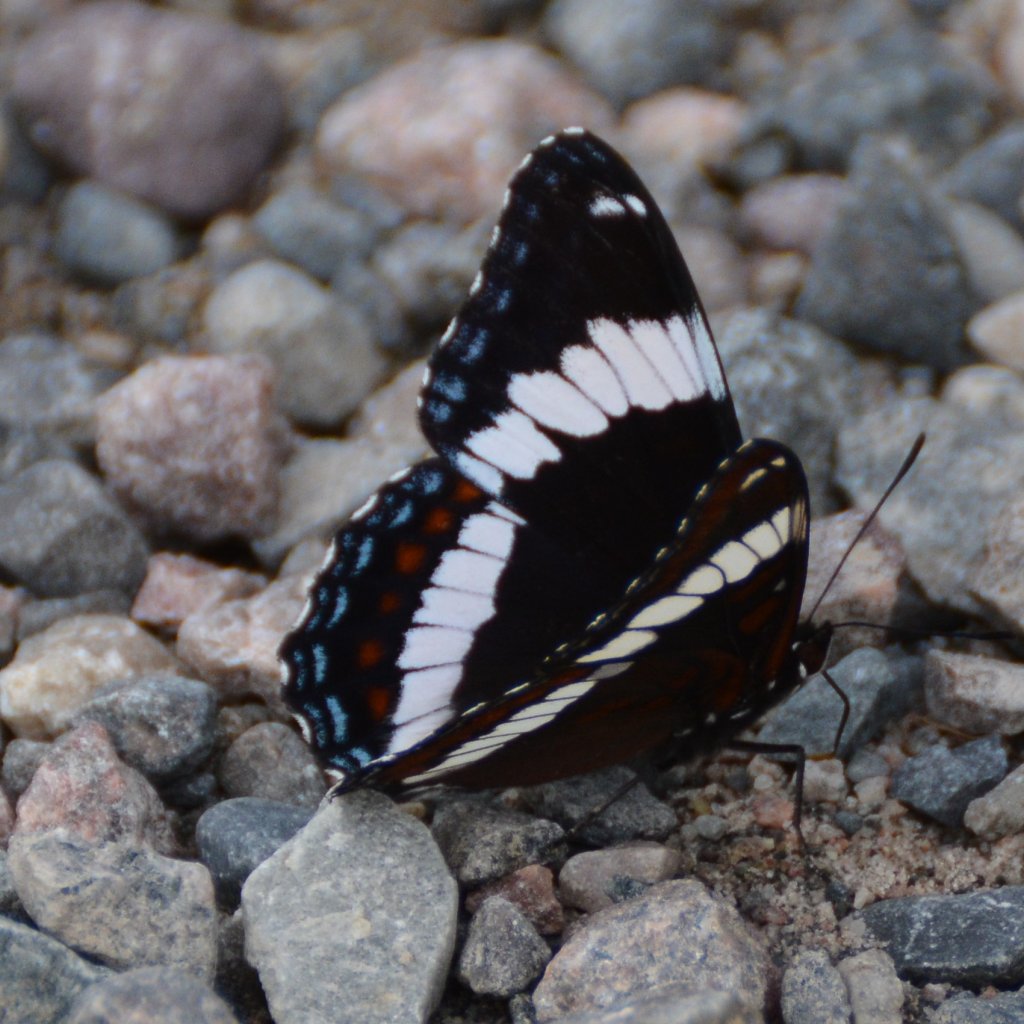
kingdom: Animalia
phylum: Arthropoda
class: Insecta
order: Lepidoptera
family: Nymphalidae
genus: Limenitis
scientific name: Limenitis arthemis
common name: Red-spotted Admiral
